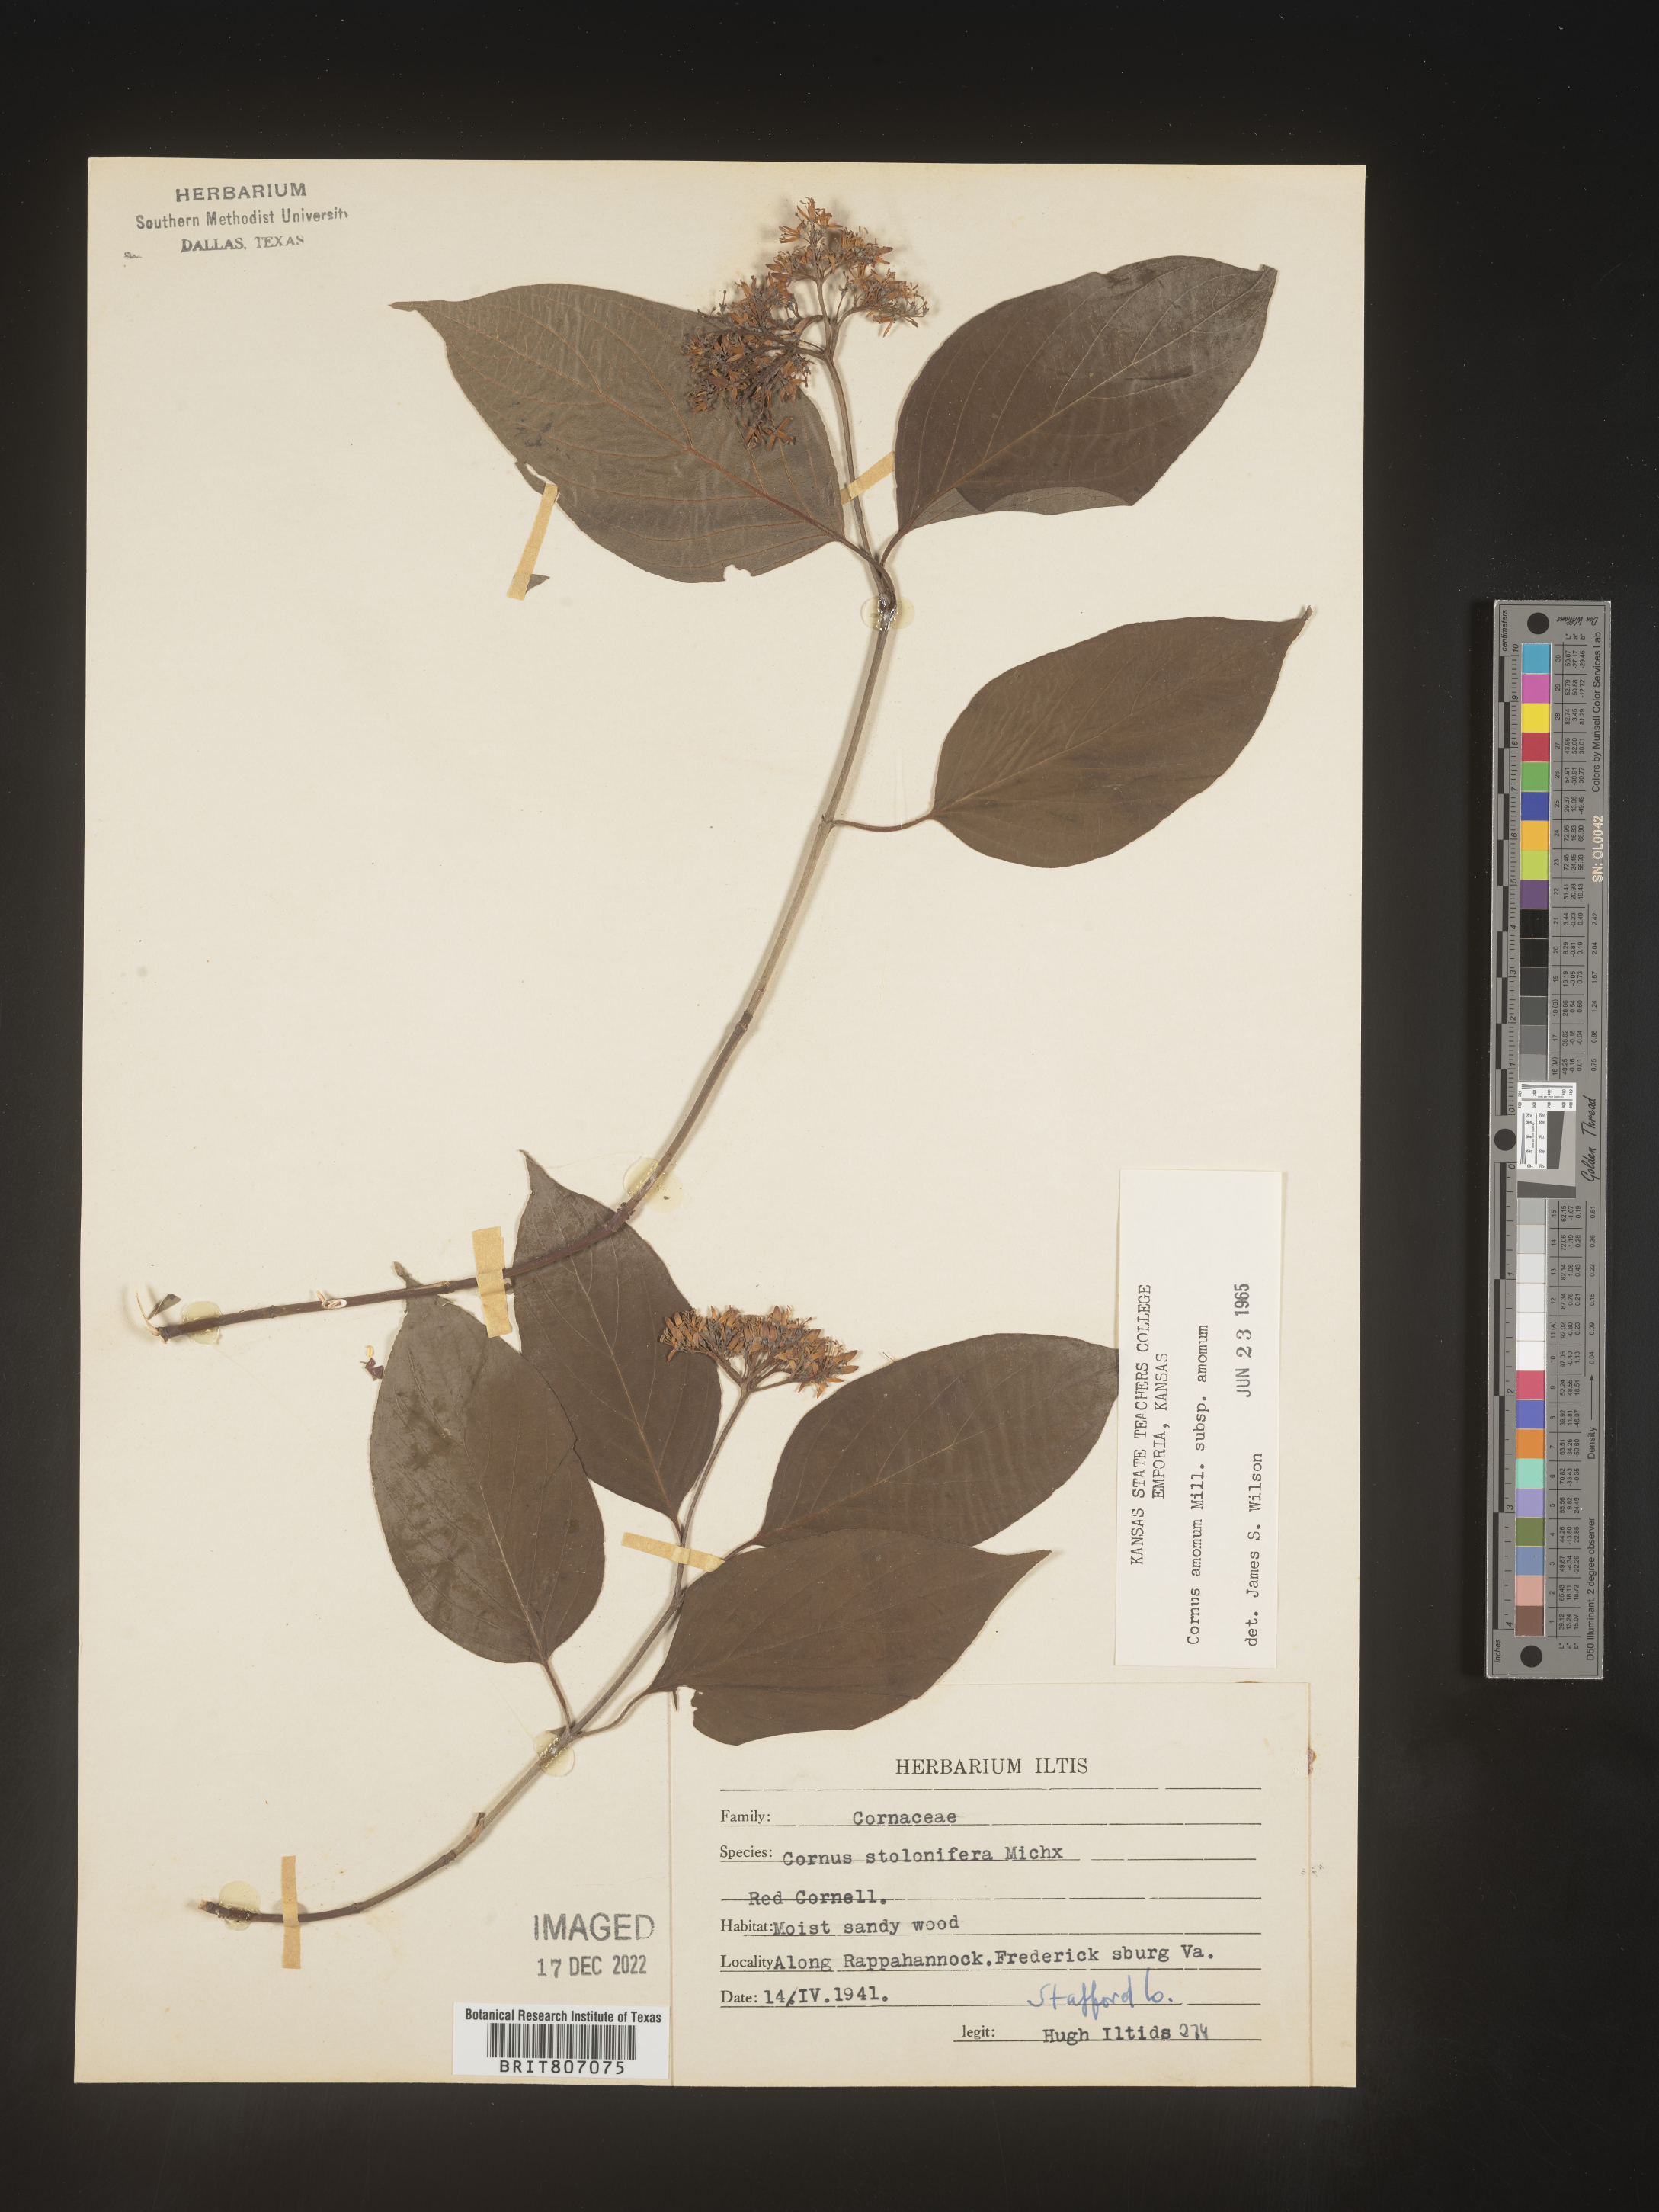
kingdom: Plantae
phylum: Tracheophyta
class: Magnoliopsida
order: Cornales
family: Cornaceae
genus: Cornus
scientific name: Cornus amomum
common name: Silky dogwood
